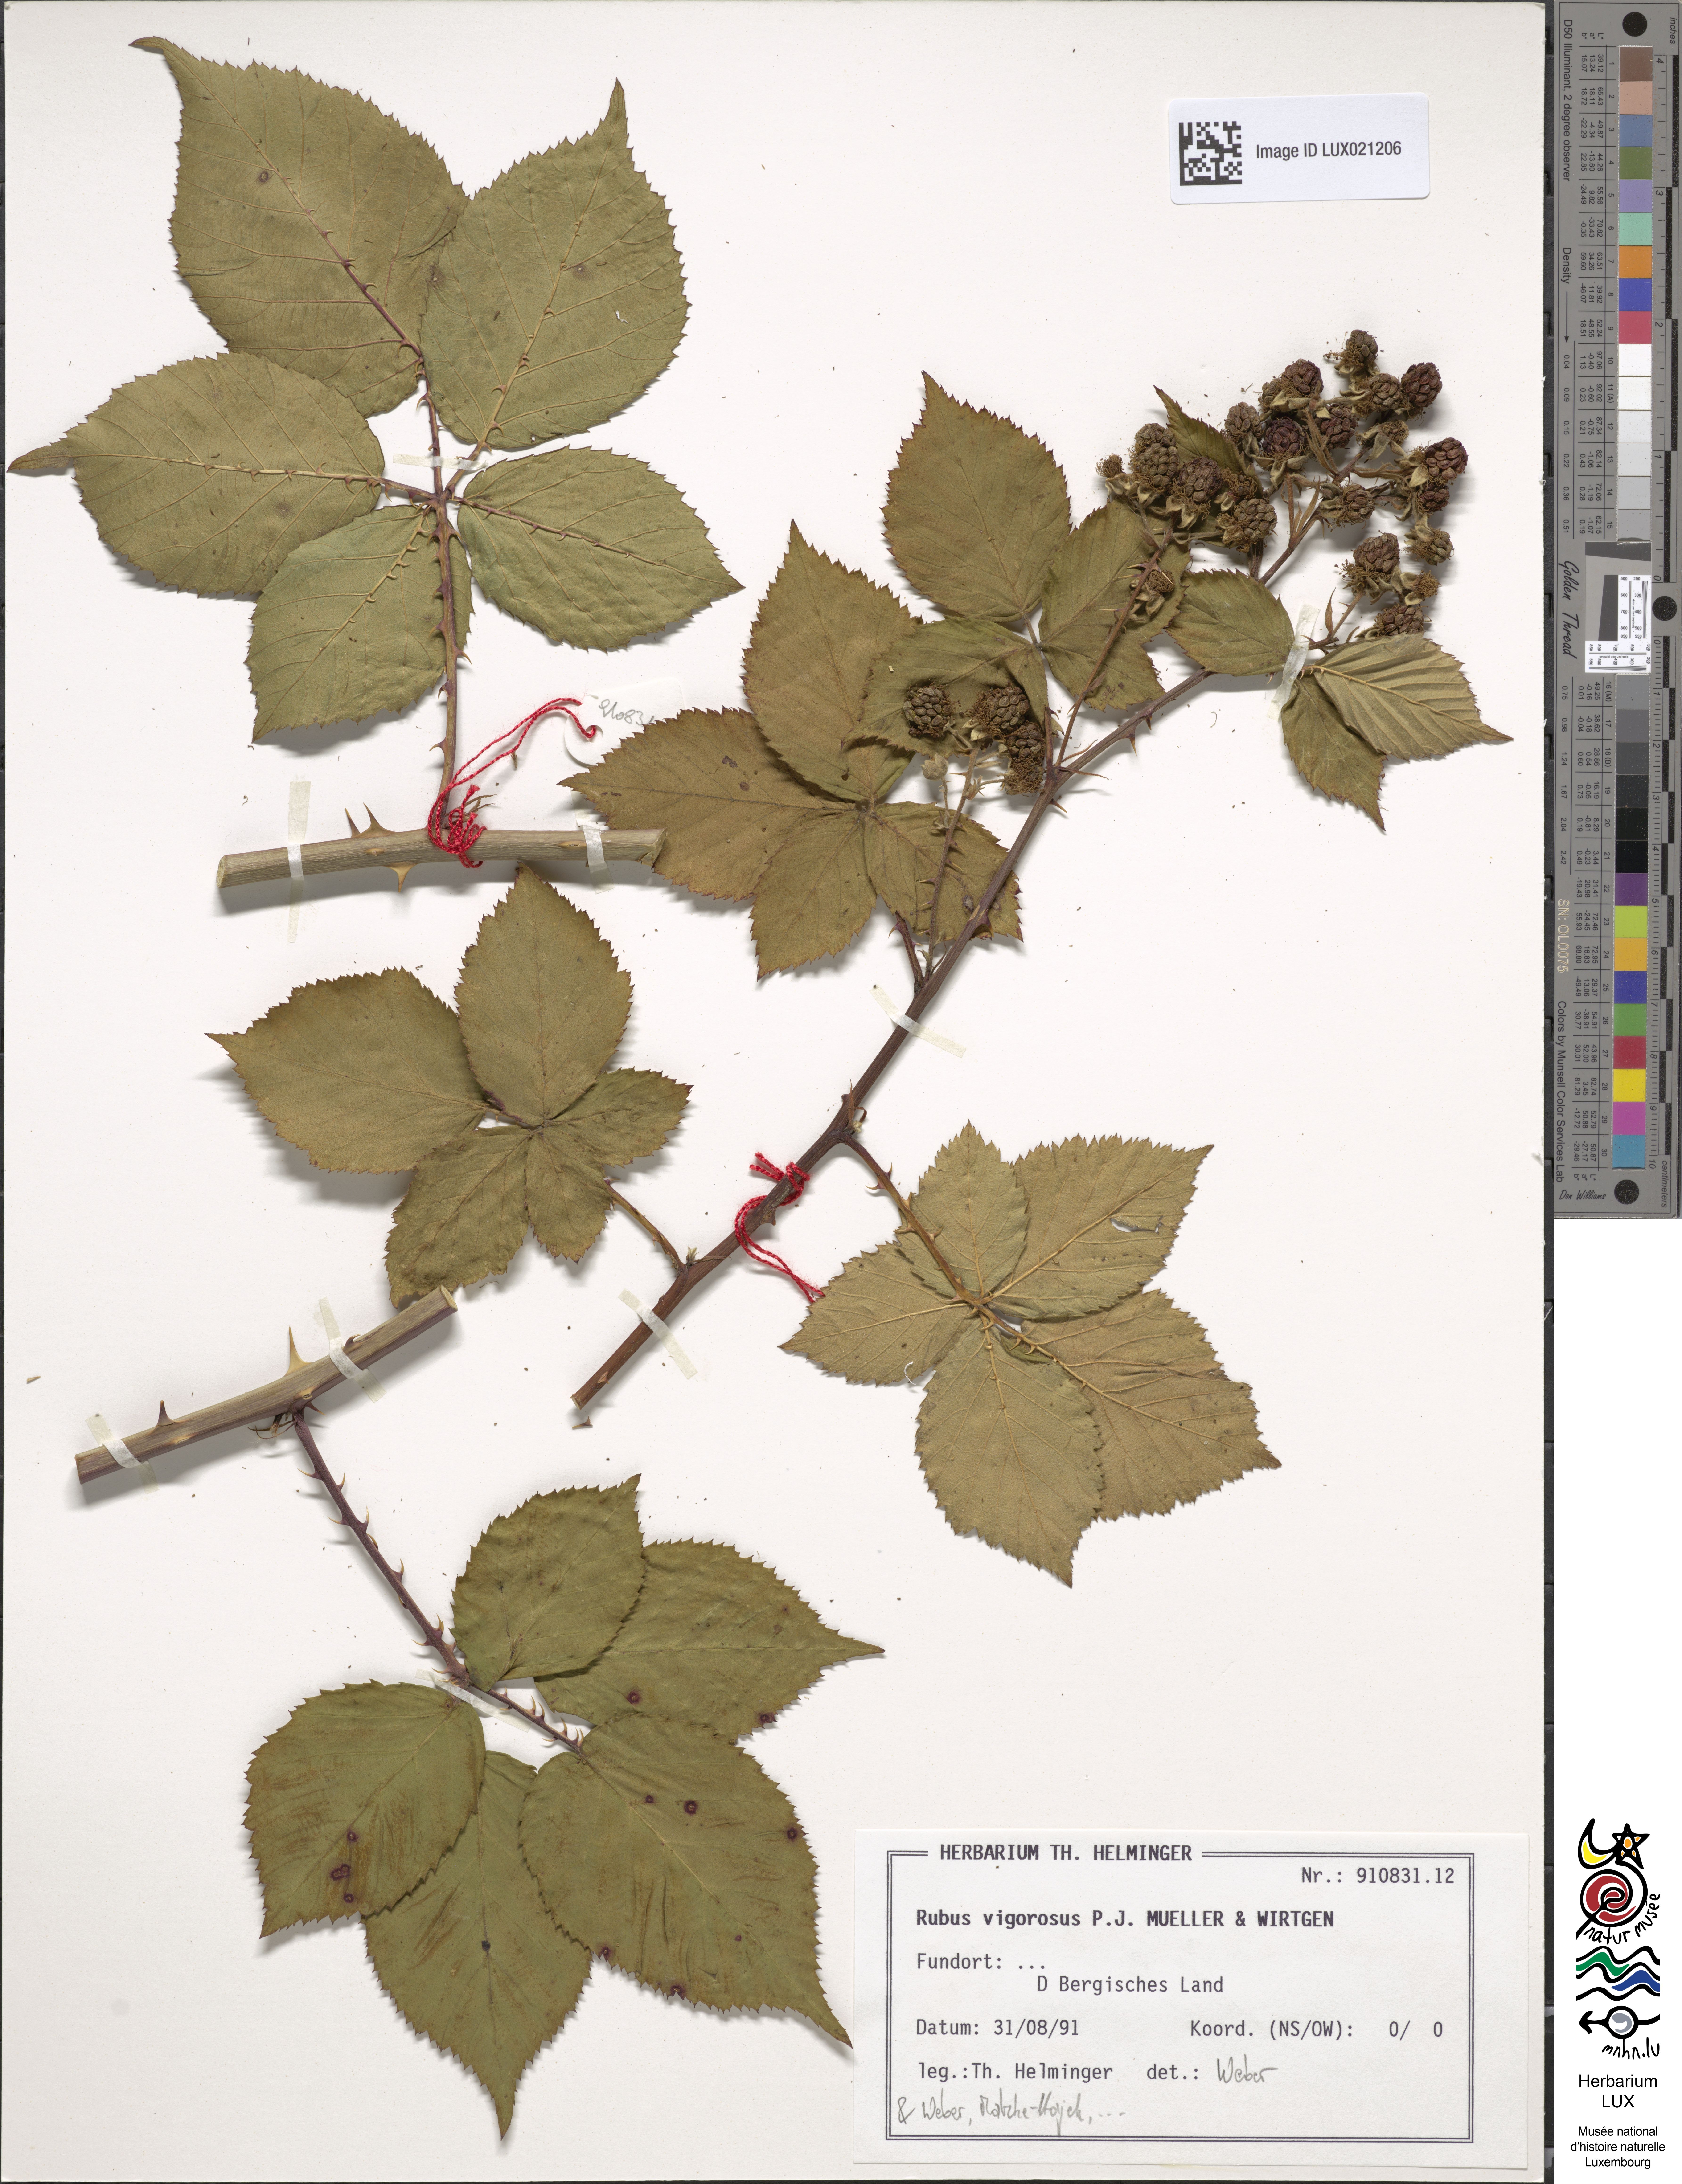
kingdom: Plantae
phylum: Tracheophyta
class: Magnoliopsida
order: Rosales
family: Rosaceae
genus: Rubus
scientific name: Rubus affinis
